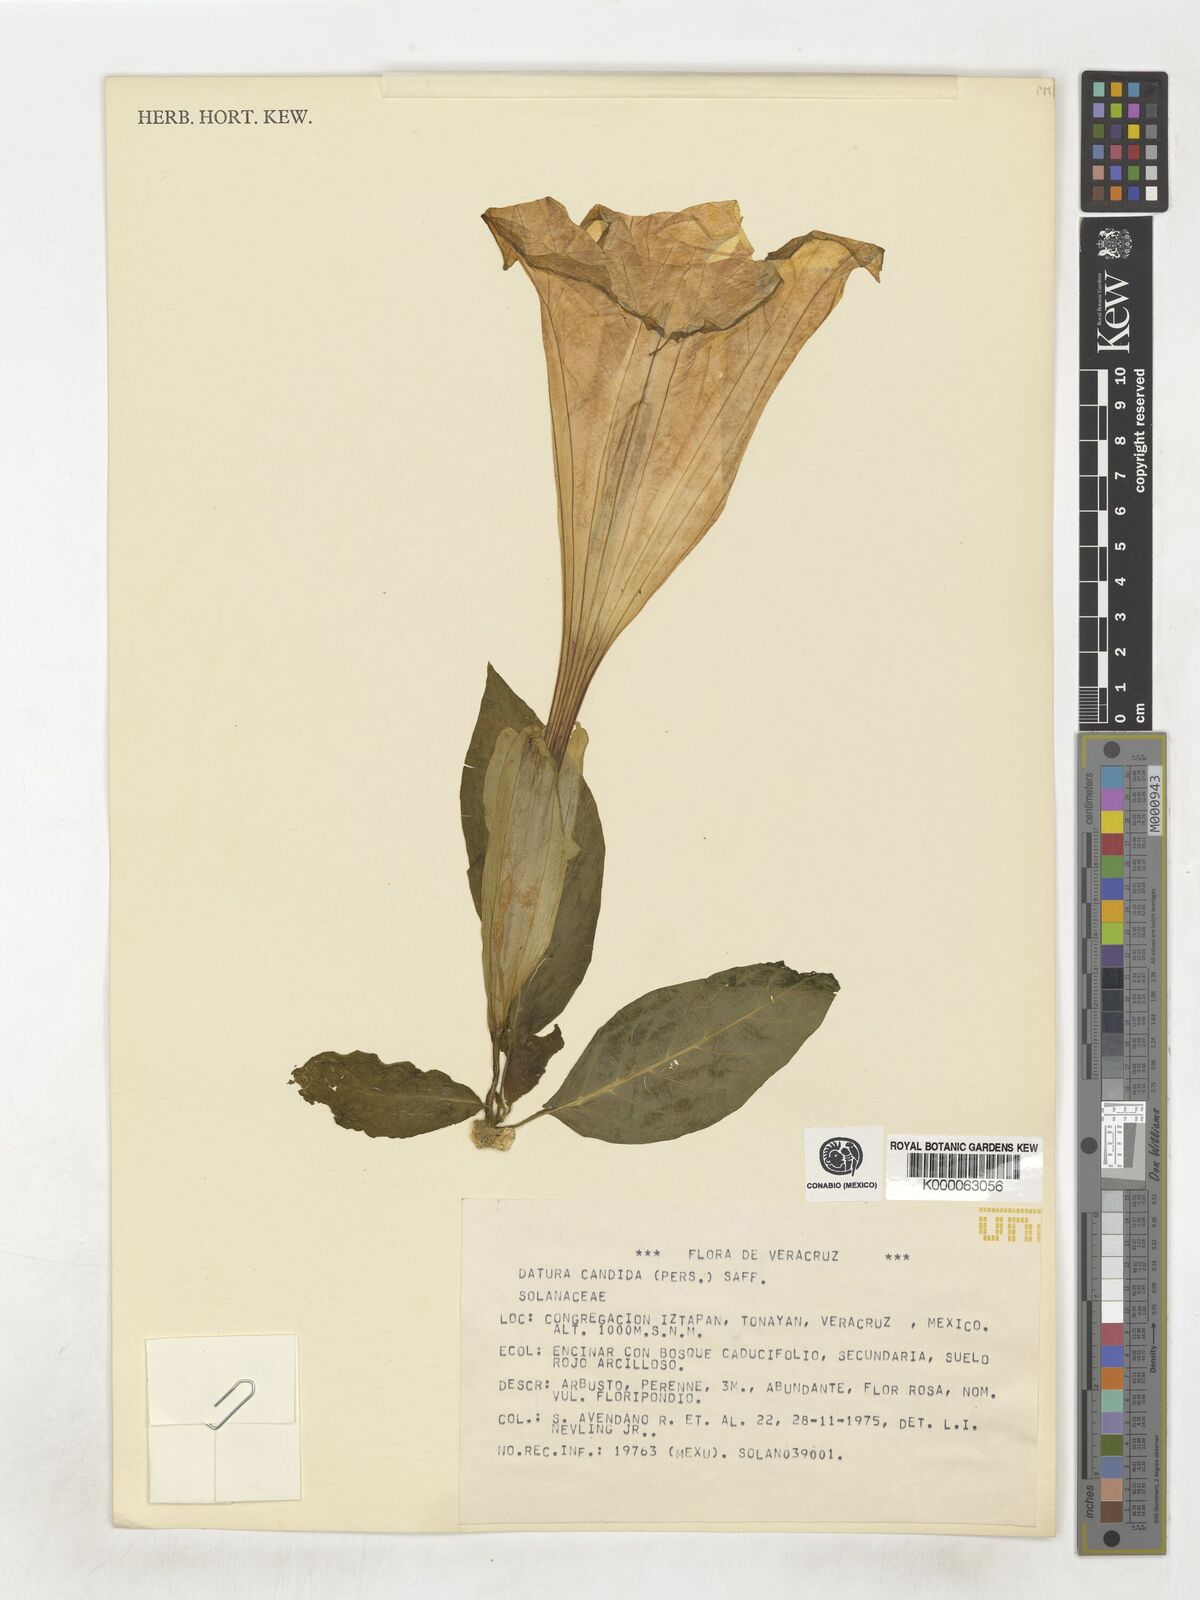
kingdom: Plantae
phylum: Tracheophyta
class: Magnoliopsida
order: Solanales
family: Solanaceae
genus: Datura
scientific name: Datura candida
